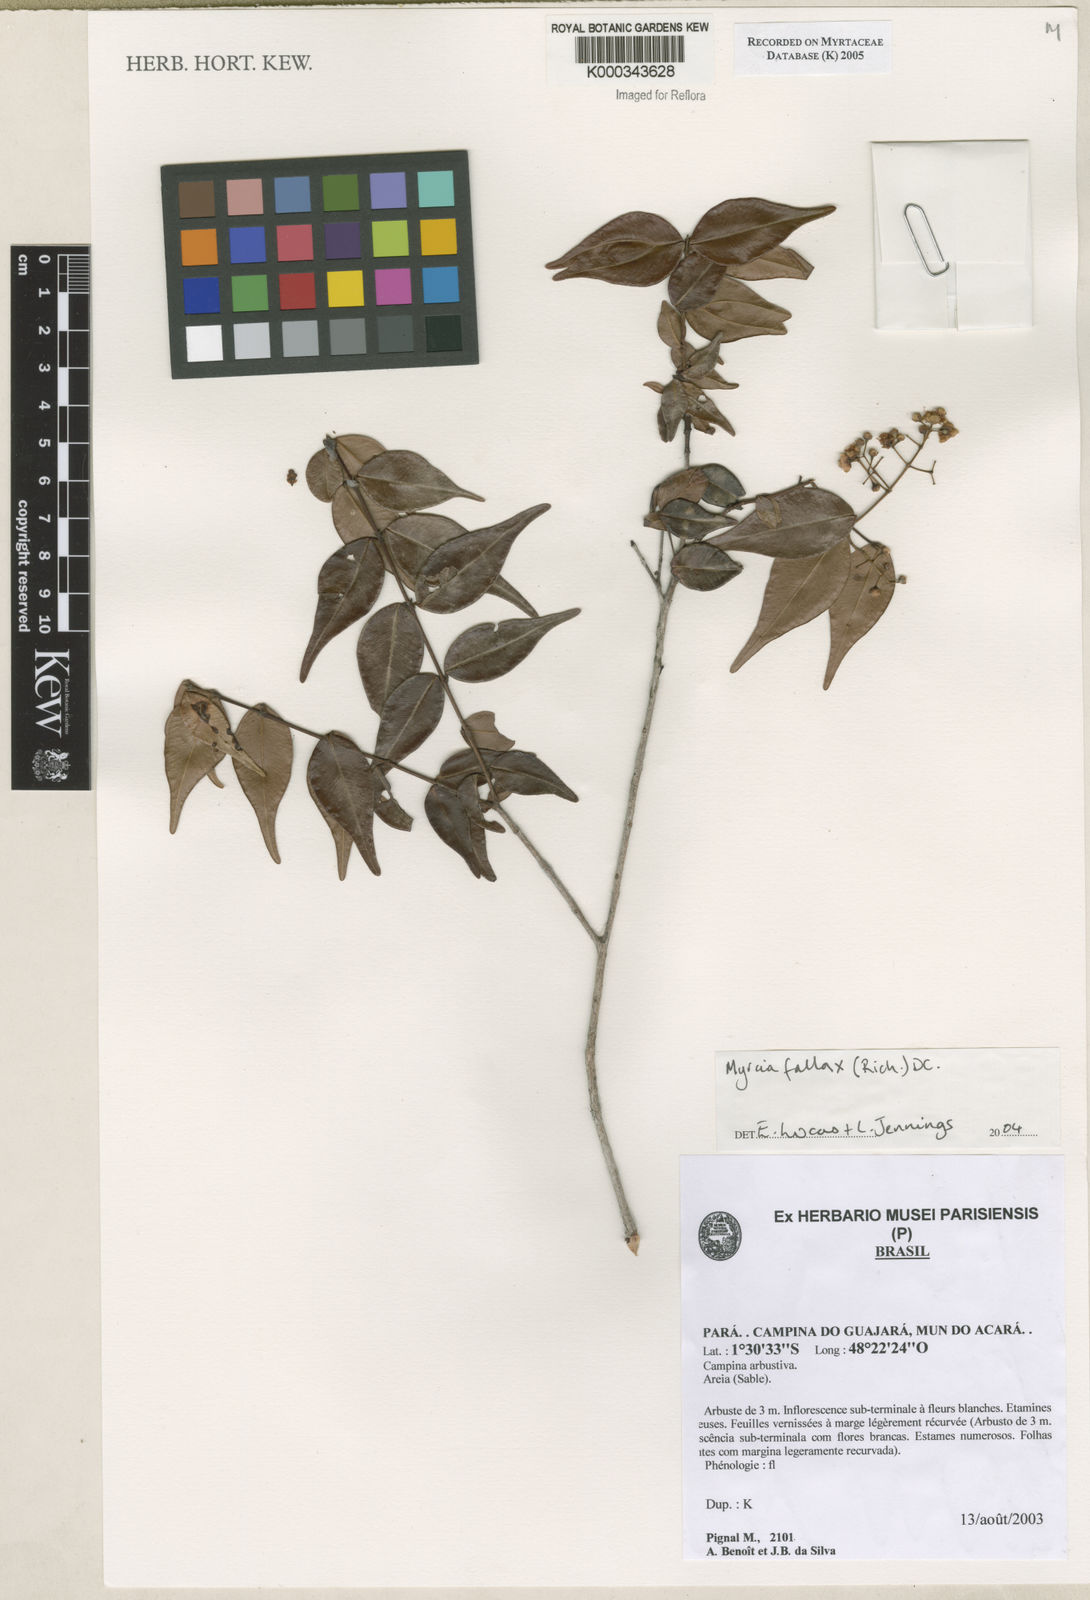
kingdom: Plantae
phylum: Tracheophyta
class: Magnoliopsida
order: Myrtales
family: Myrtaceae
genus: Myrcia
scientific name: Myrcia splendens
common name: Surinam cherry
